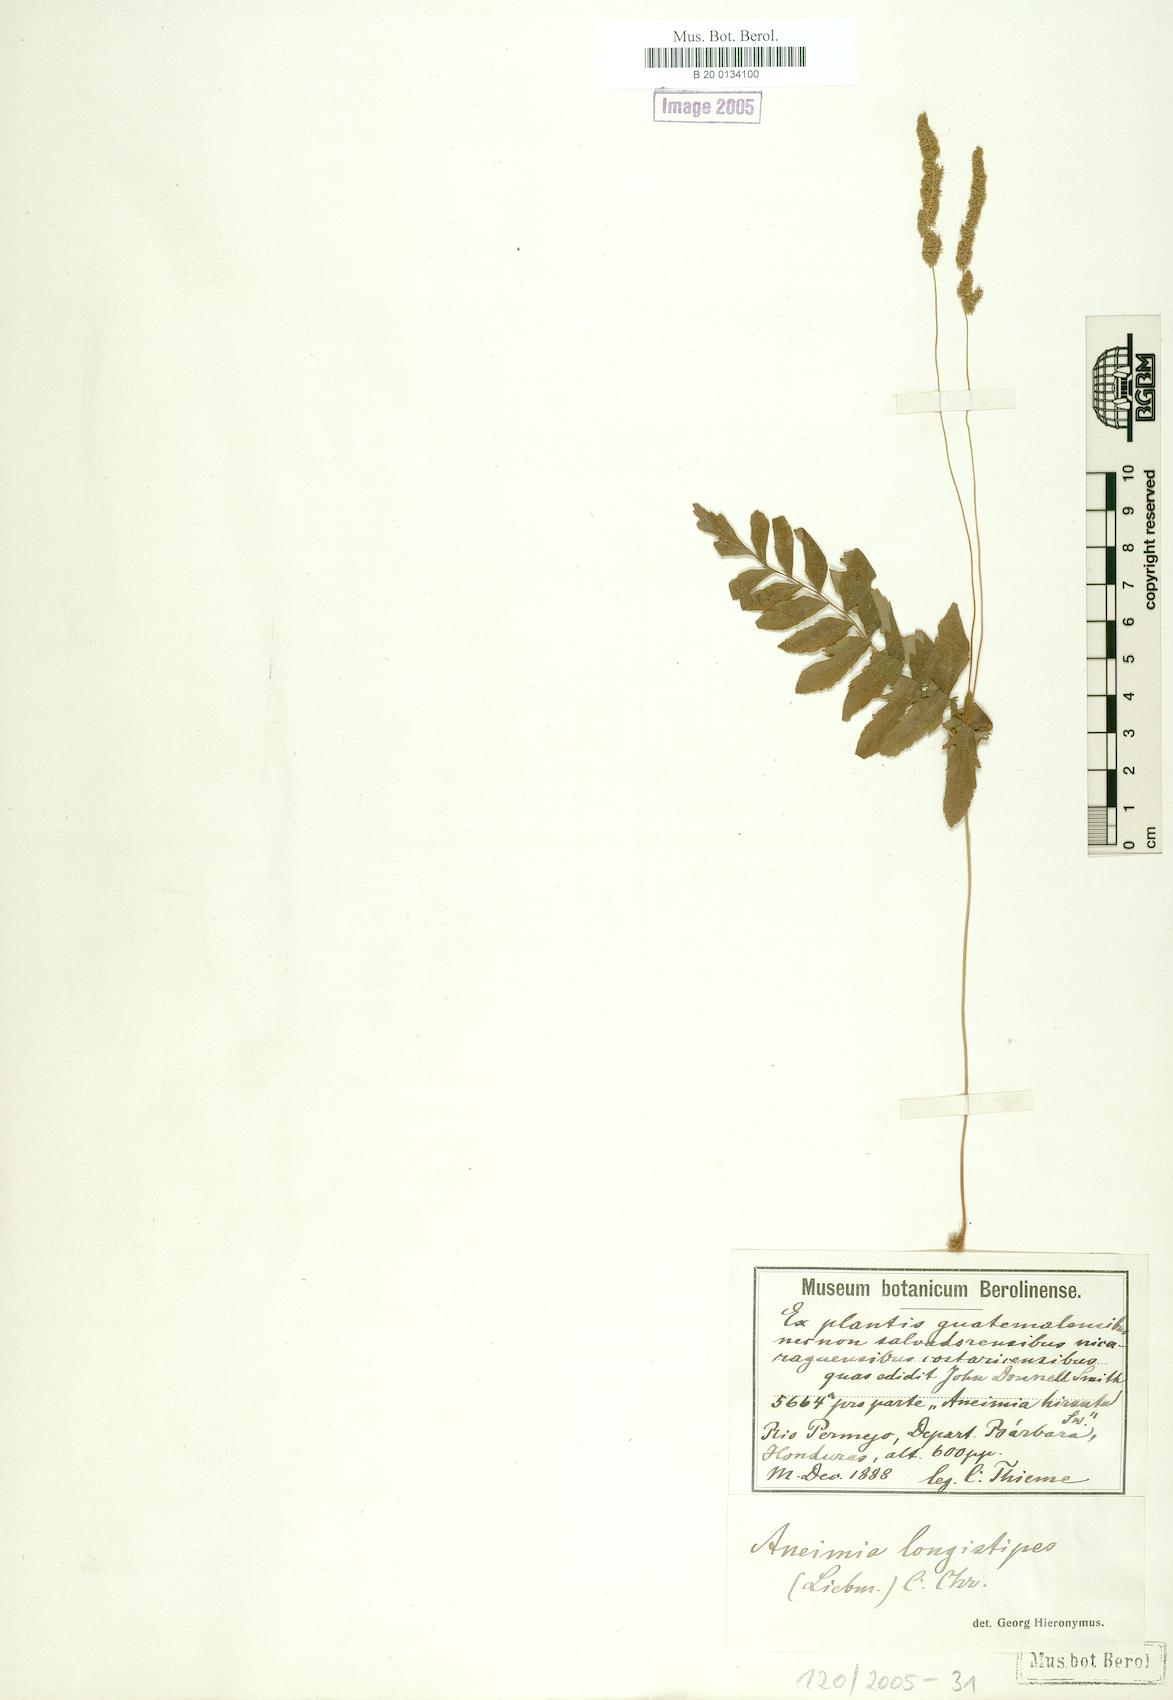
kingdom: Plantae
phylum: Tracheophyta
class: Polypodiopsida
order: Schizaeales
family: Anemiaceae
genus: Anemia
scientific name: Anemia hispida
